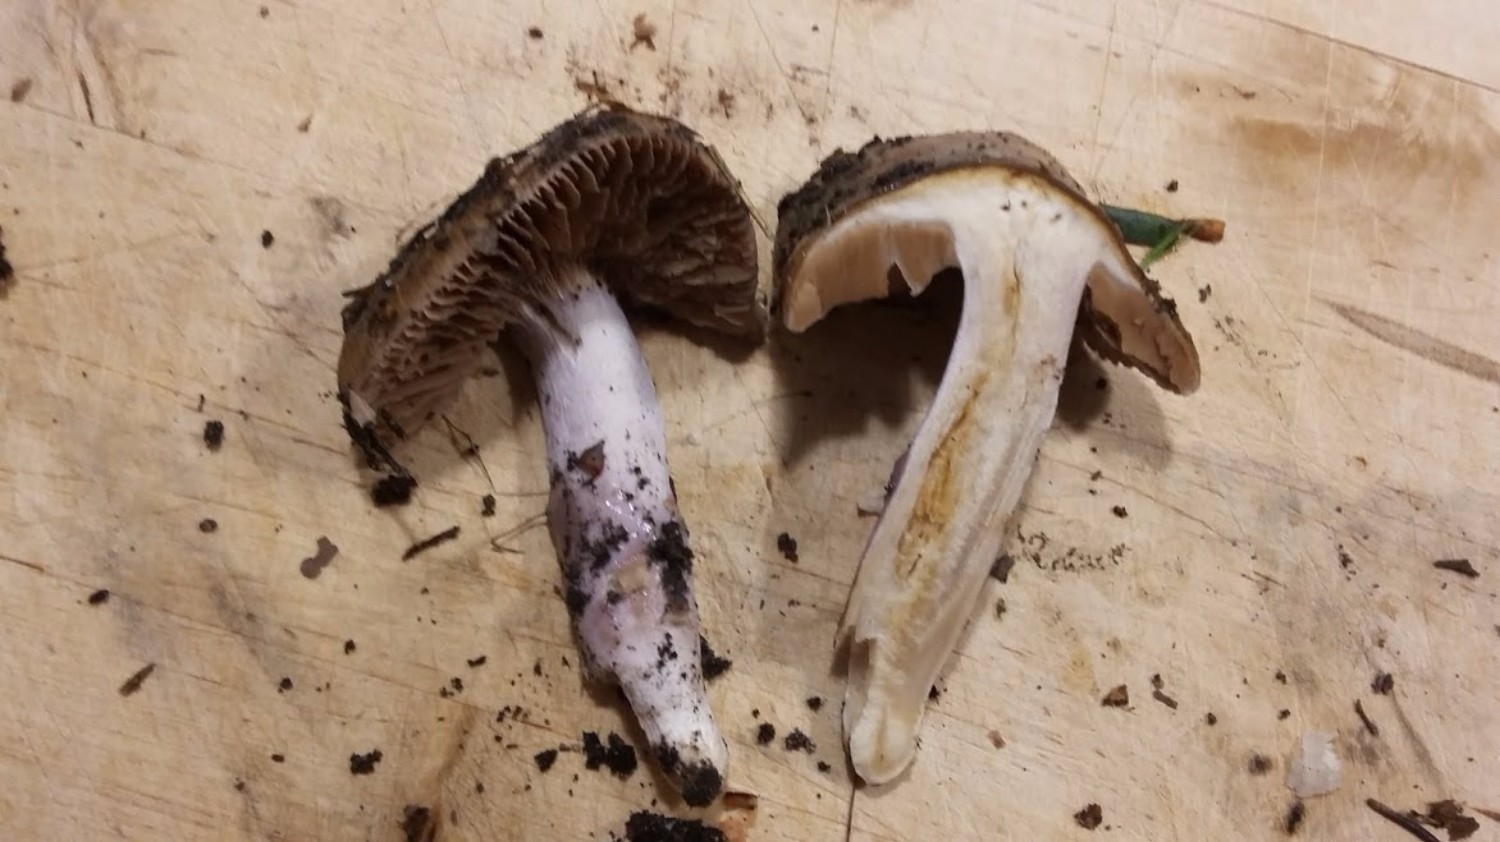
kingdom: Fungi
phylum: Basidiomycota
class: Agaricomycetes
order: Agaricales
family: Cortinariaceae
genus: Cortinarius
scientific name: Cortinarius elatior
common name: høj slørhat
